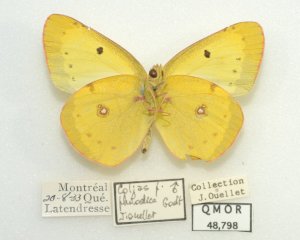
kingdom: Animalia
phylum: Arthropoda
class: Insecta
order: Lepidoptera
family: Pieridae
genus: Colias
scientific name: Colias philodice
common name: Clouded Sulphur
